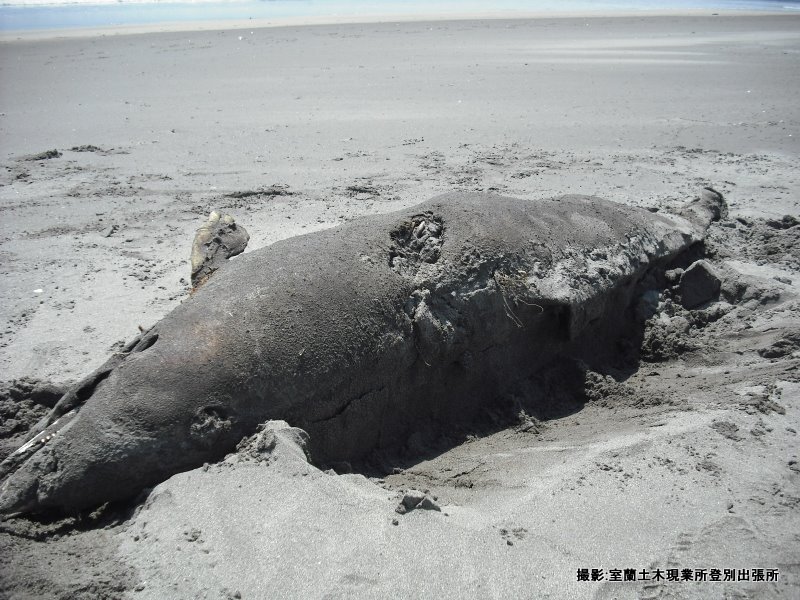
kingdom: Animalia
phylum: Chordata
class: Mammalia
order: Cetacea
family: Delphinidae
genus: Lagenorhynchus
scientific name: Lagenorhynchus obliquidens
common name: Pacific white-sided dolphin
